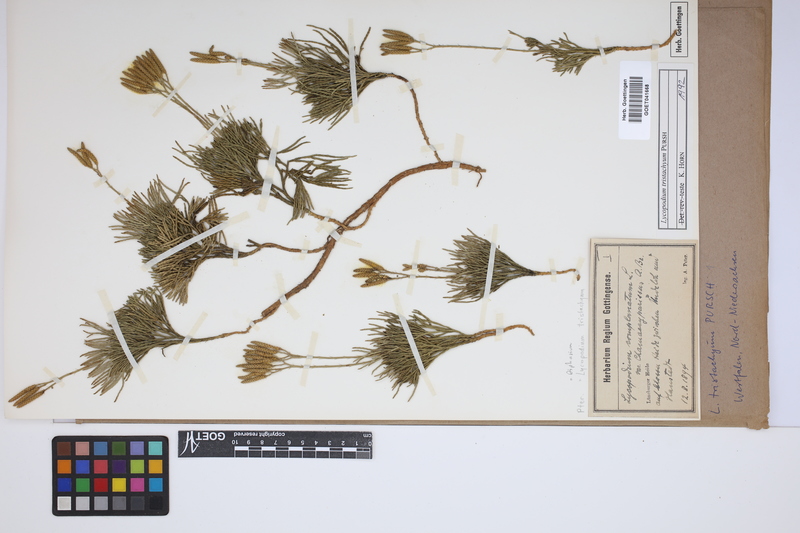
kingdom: Plantae
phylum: Tracheophyta
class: Lycopodiopsida
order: Lycopodiales
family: Lycopodiaceae
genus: Diphasiastrum
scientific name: Diphasiastrum tristachyum
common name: Blue ground-cedar
